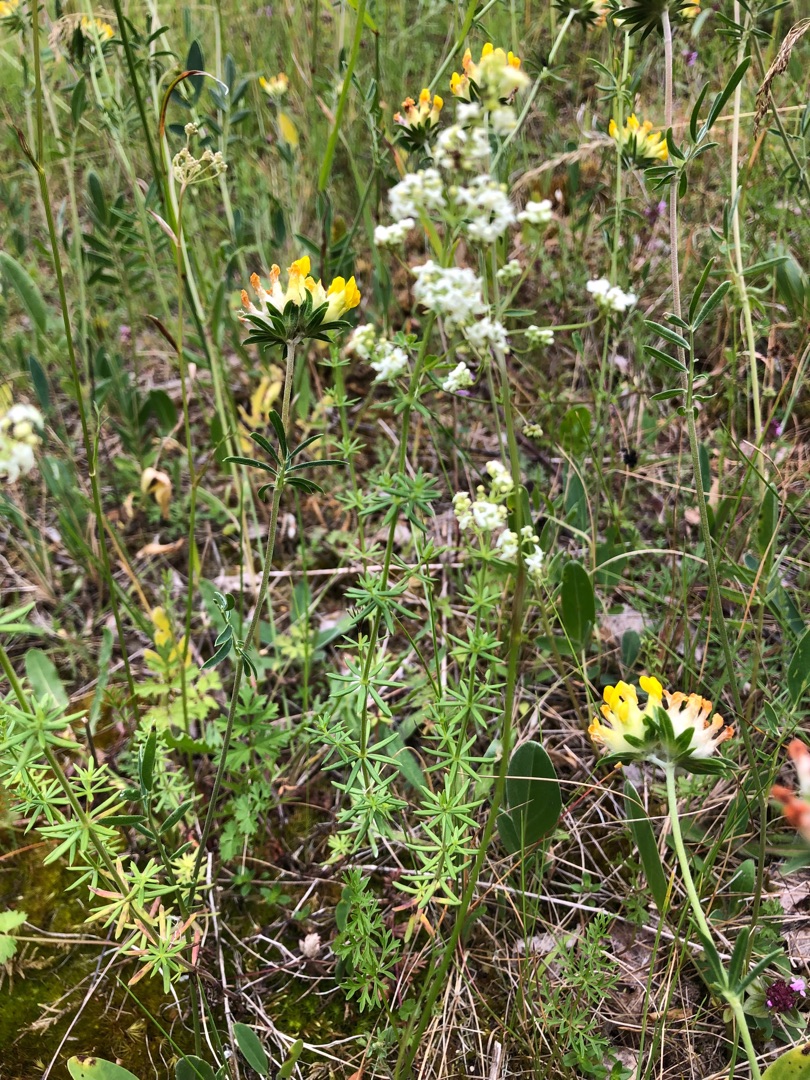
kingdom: Plantae
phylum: Tracheophyta
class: Magnoliopsida
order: Gentianales
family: Rubiaceae
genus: Galium
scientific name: Galium mollugo
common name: Hvid snerre
